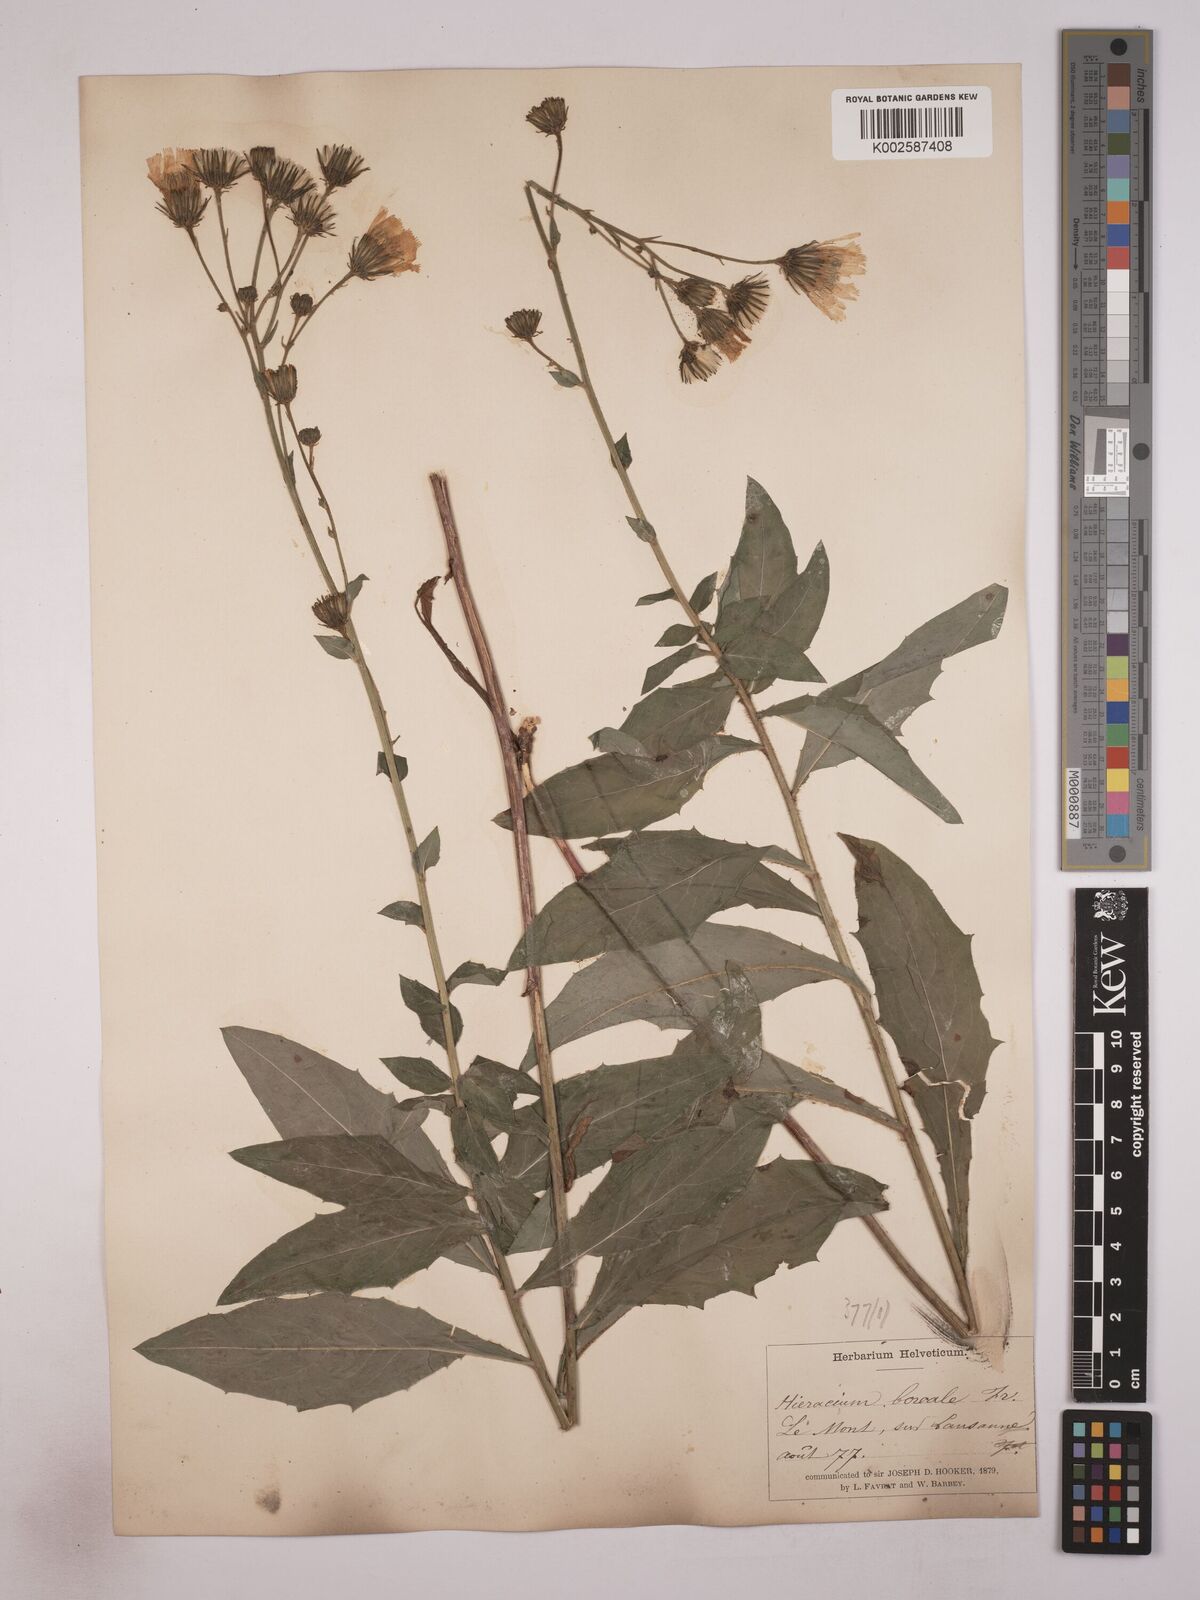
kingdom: Plantae
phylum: Tracheophyta
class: Magnoliopsida
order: Asterales
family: Asteraceae
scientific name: Asteraceae
